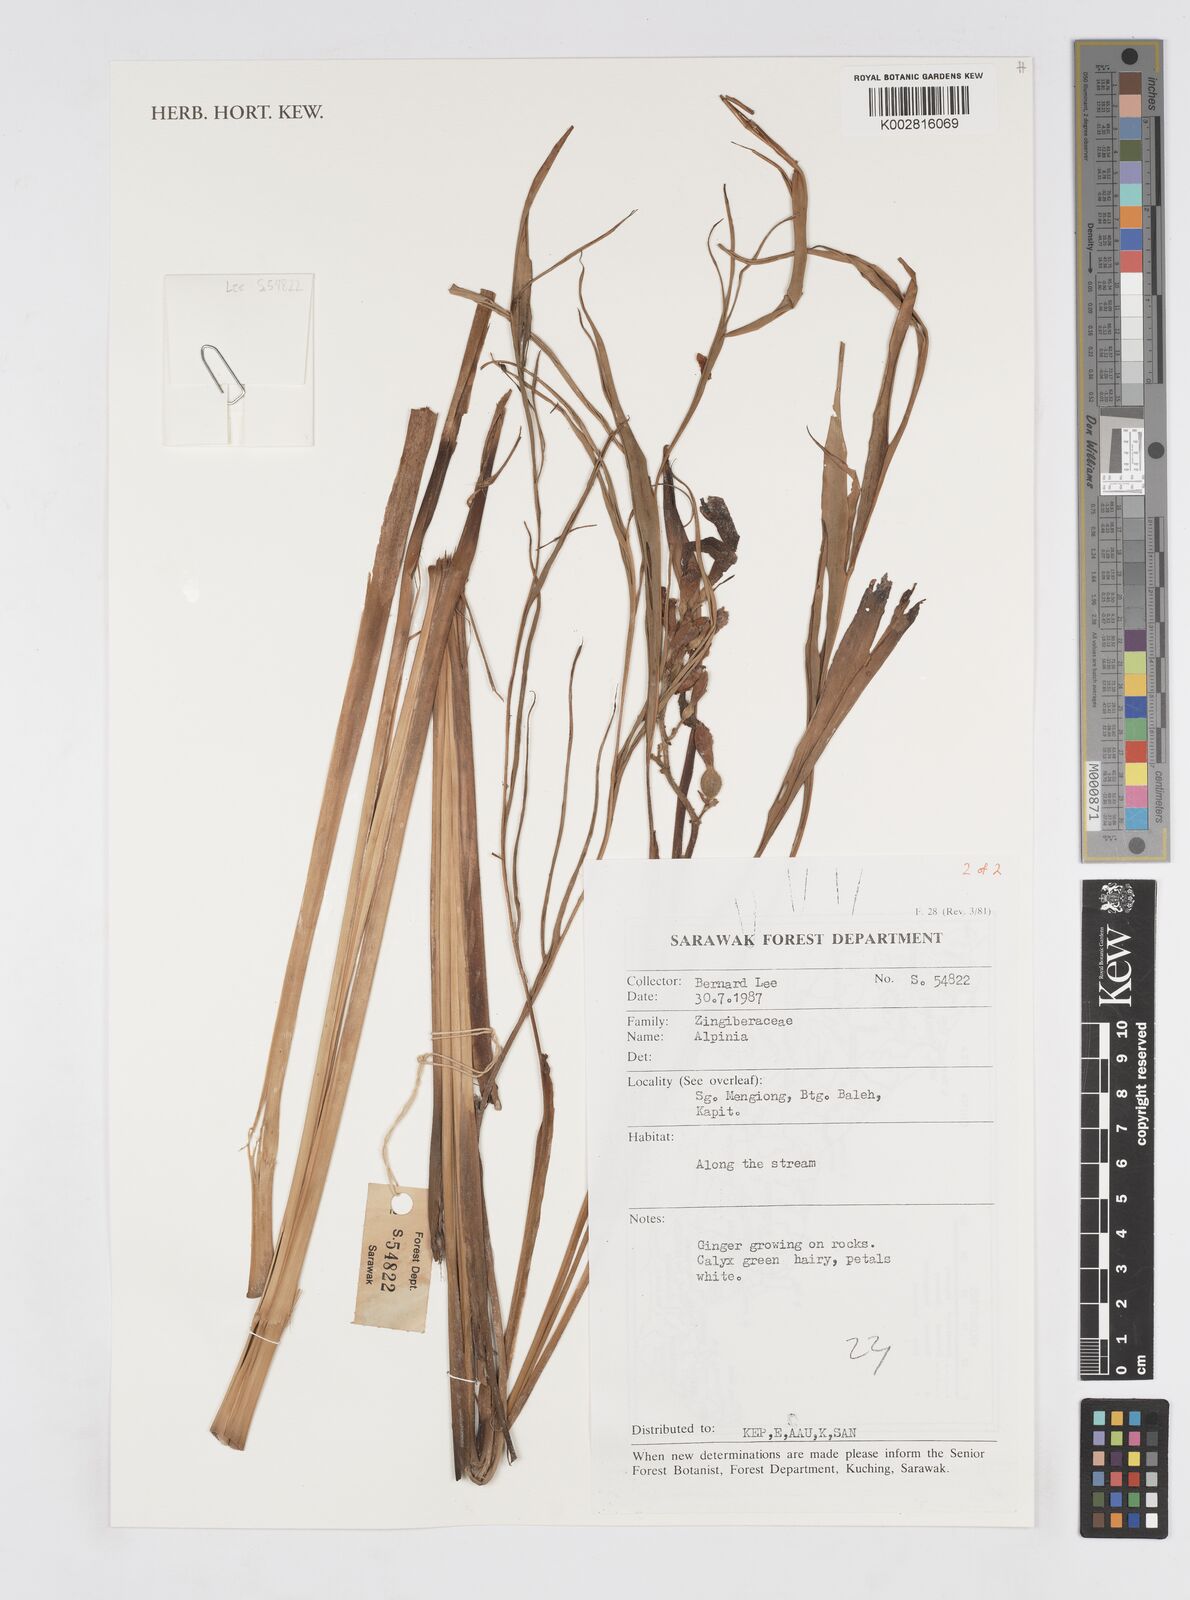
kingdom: Plantae
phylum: Tracheophyta
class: Liliopsida
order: Zingiberales
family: Zingiberaceae
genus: Alpinia
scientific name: Alpinia
